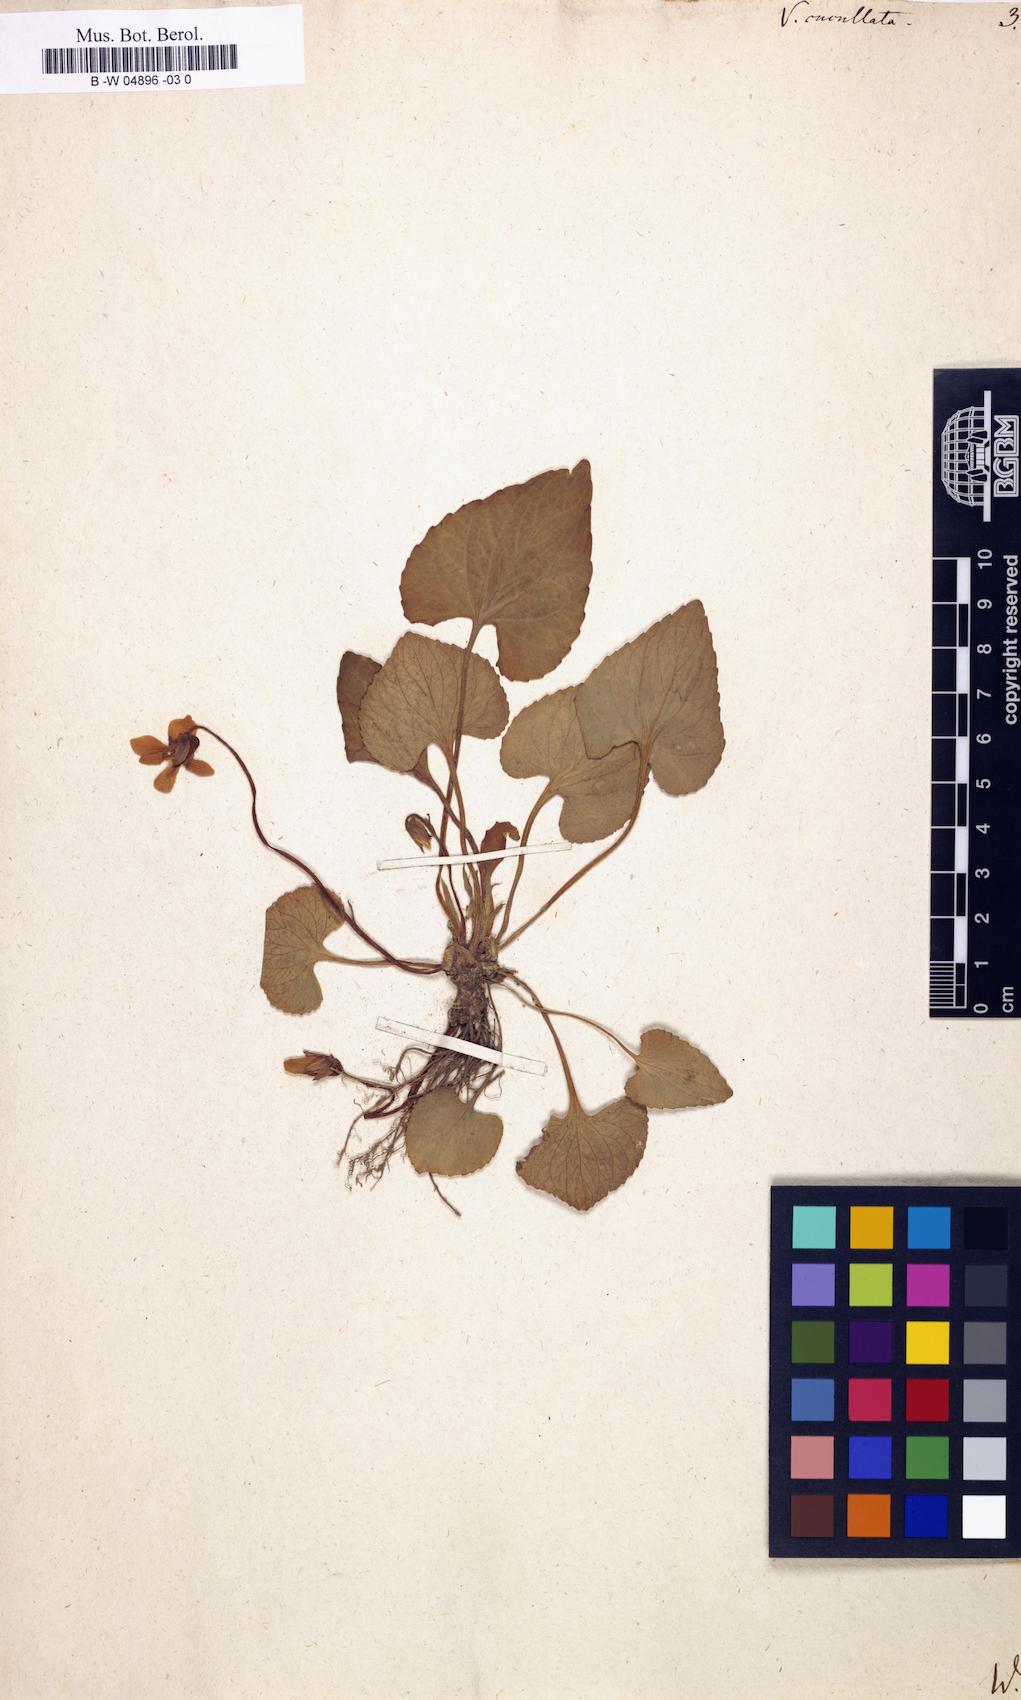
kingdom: Plantae
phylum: Tracheophyta
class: Magnoliopsida
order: Malpighiales
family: Violaceae
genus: Viola
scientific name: Viola cucullata
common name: Marsh blue violet
